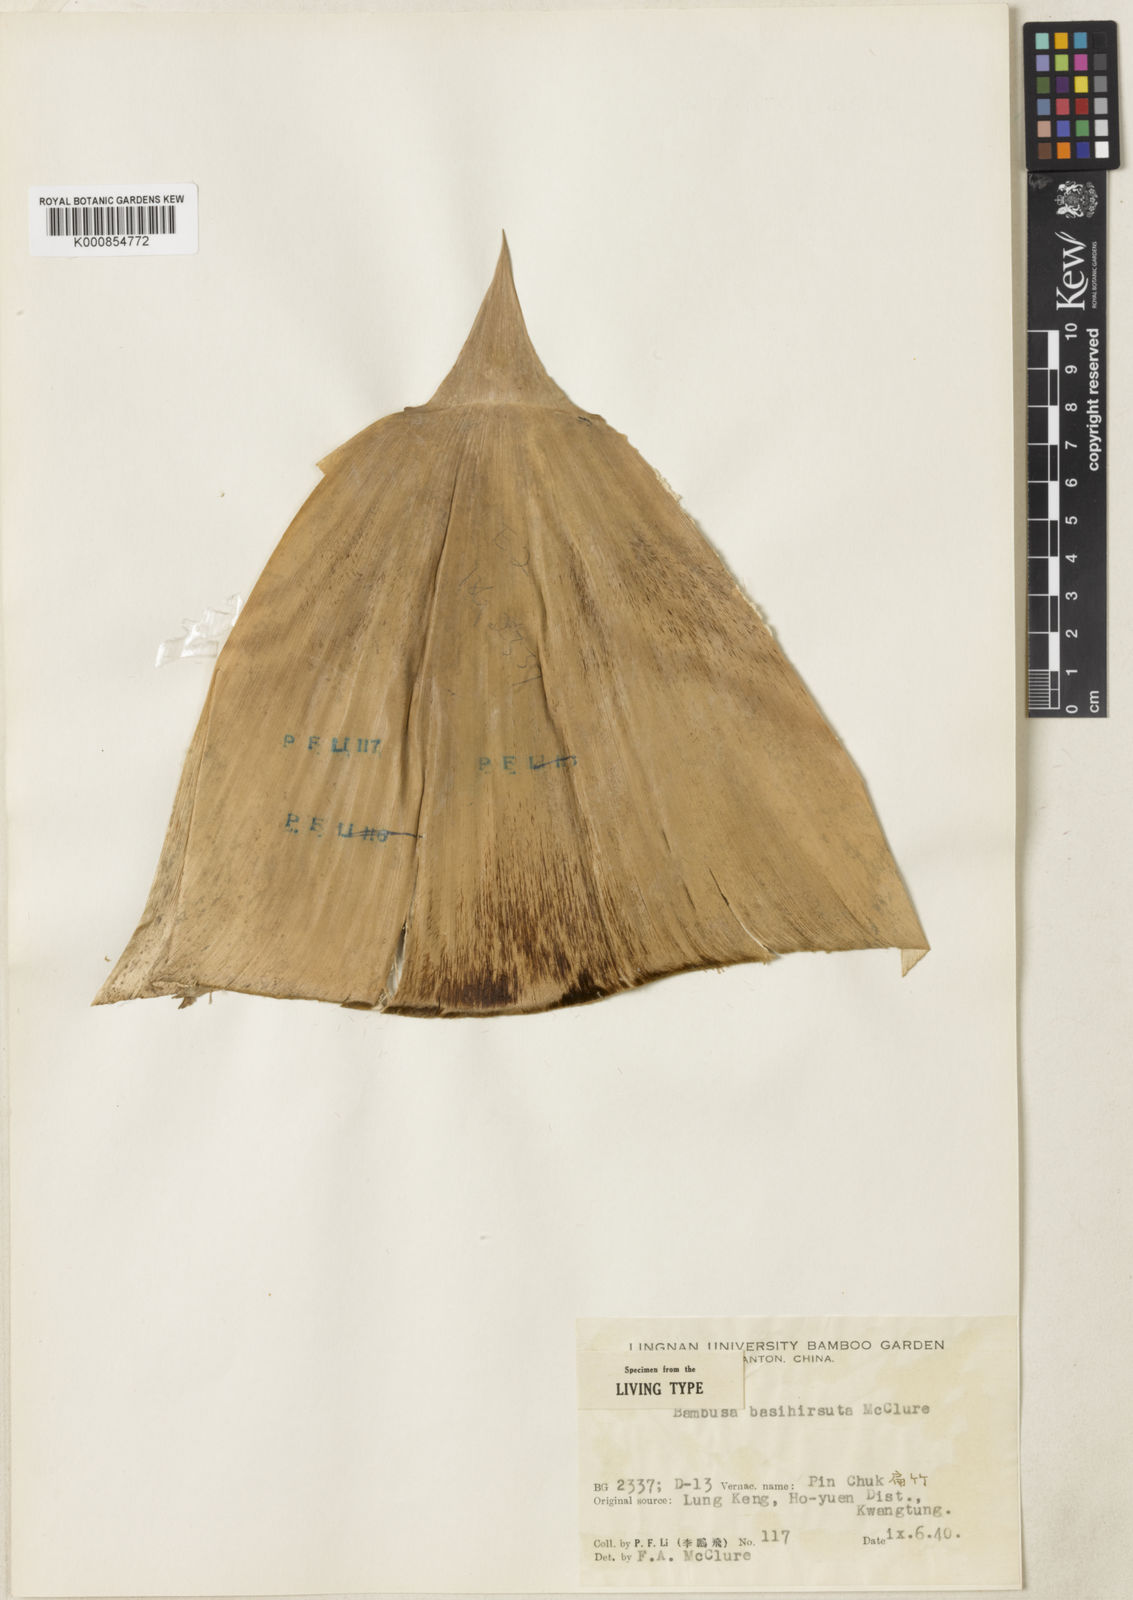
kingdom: Plantae
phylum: Tracheophyta
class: Liliopsida
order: Poales
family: Poaceae
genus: Bambusa
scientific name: Bambusa basihirsuta
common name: Pin bamboo
